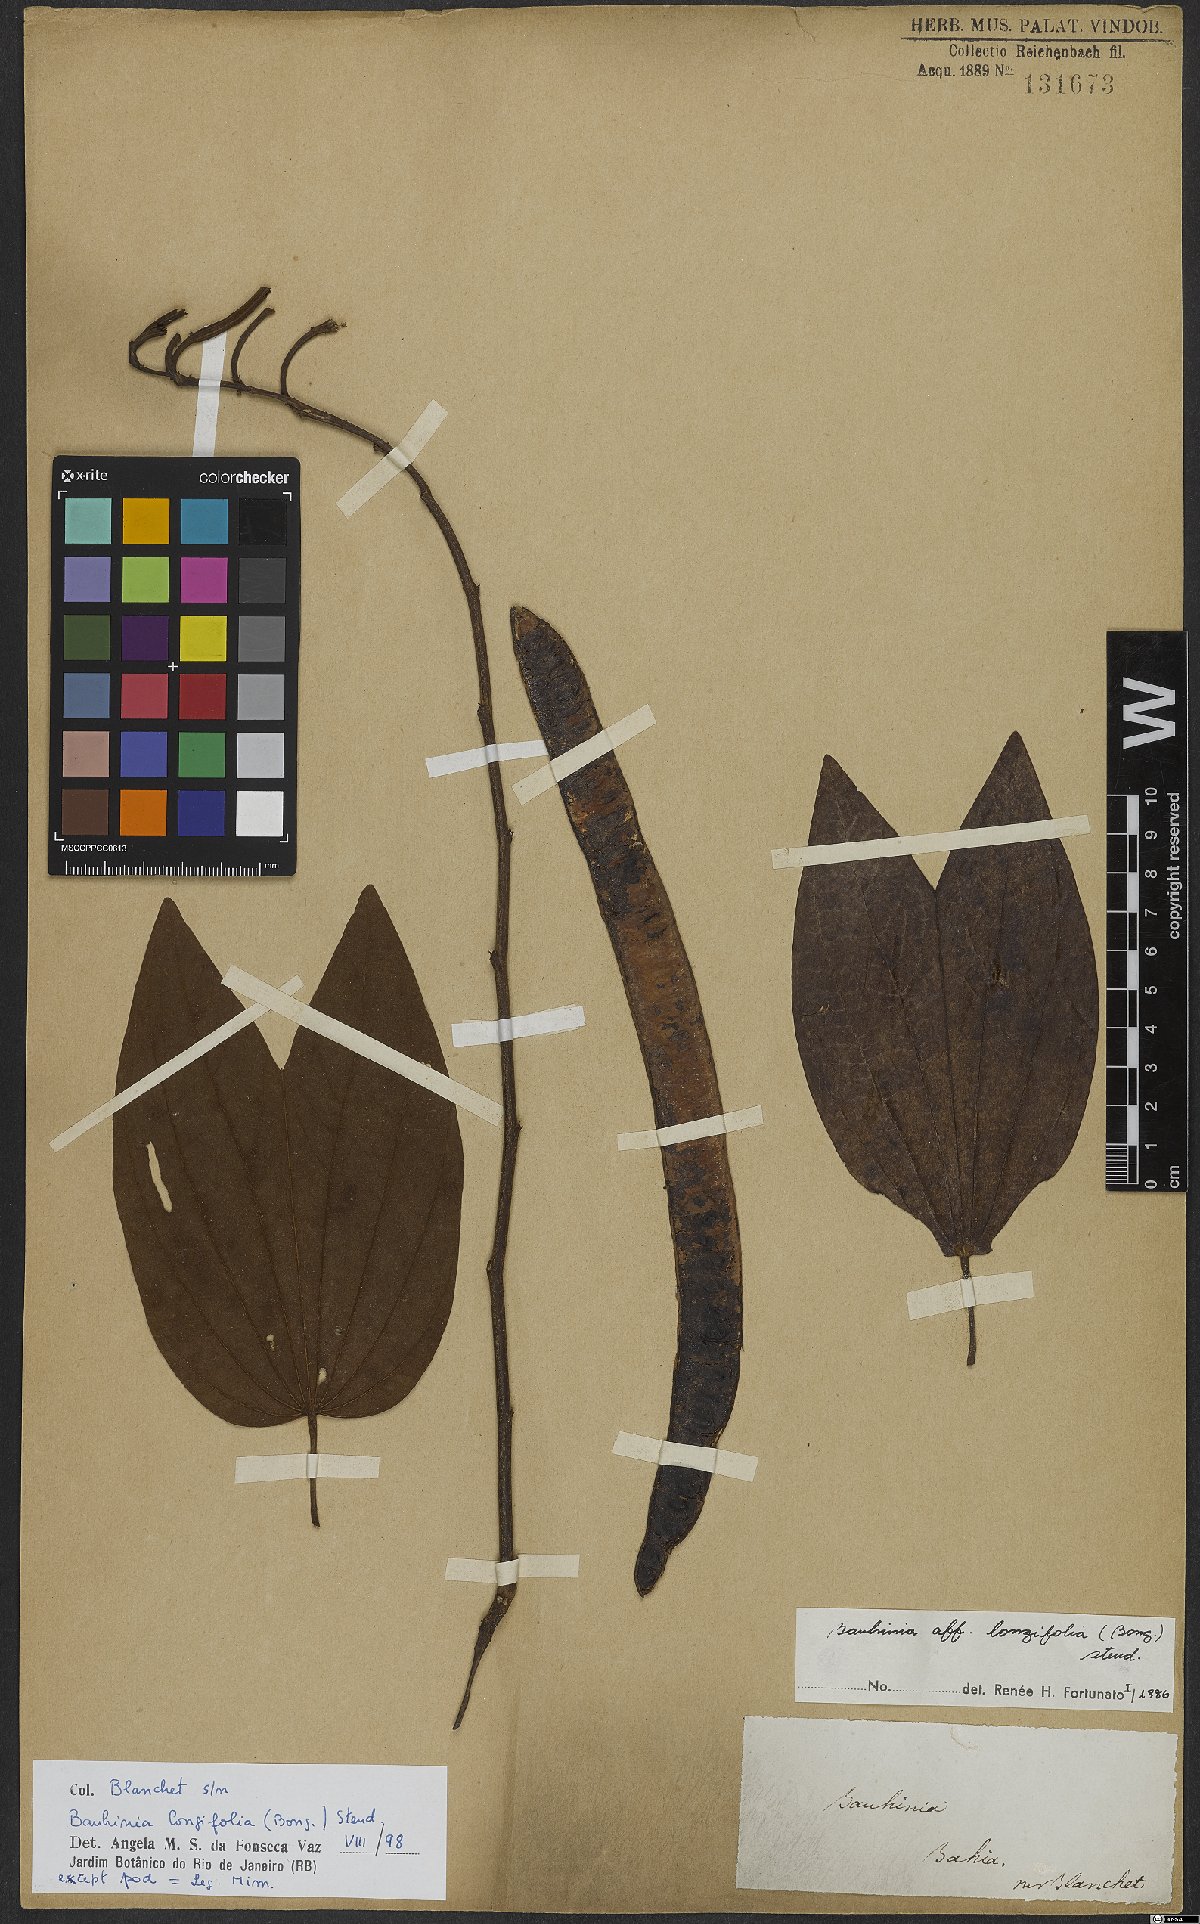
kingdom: Plantae
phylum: Tracheophyta
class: Magnoliopsida
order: Fabales
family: Fabaceae
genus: Bauhinia
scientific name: Bauhinia longifolia
